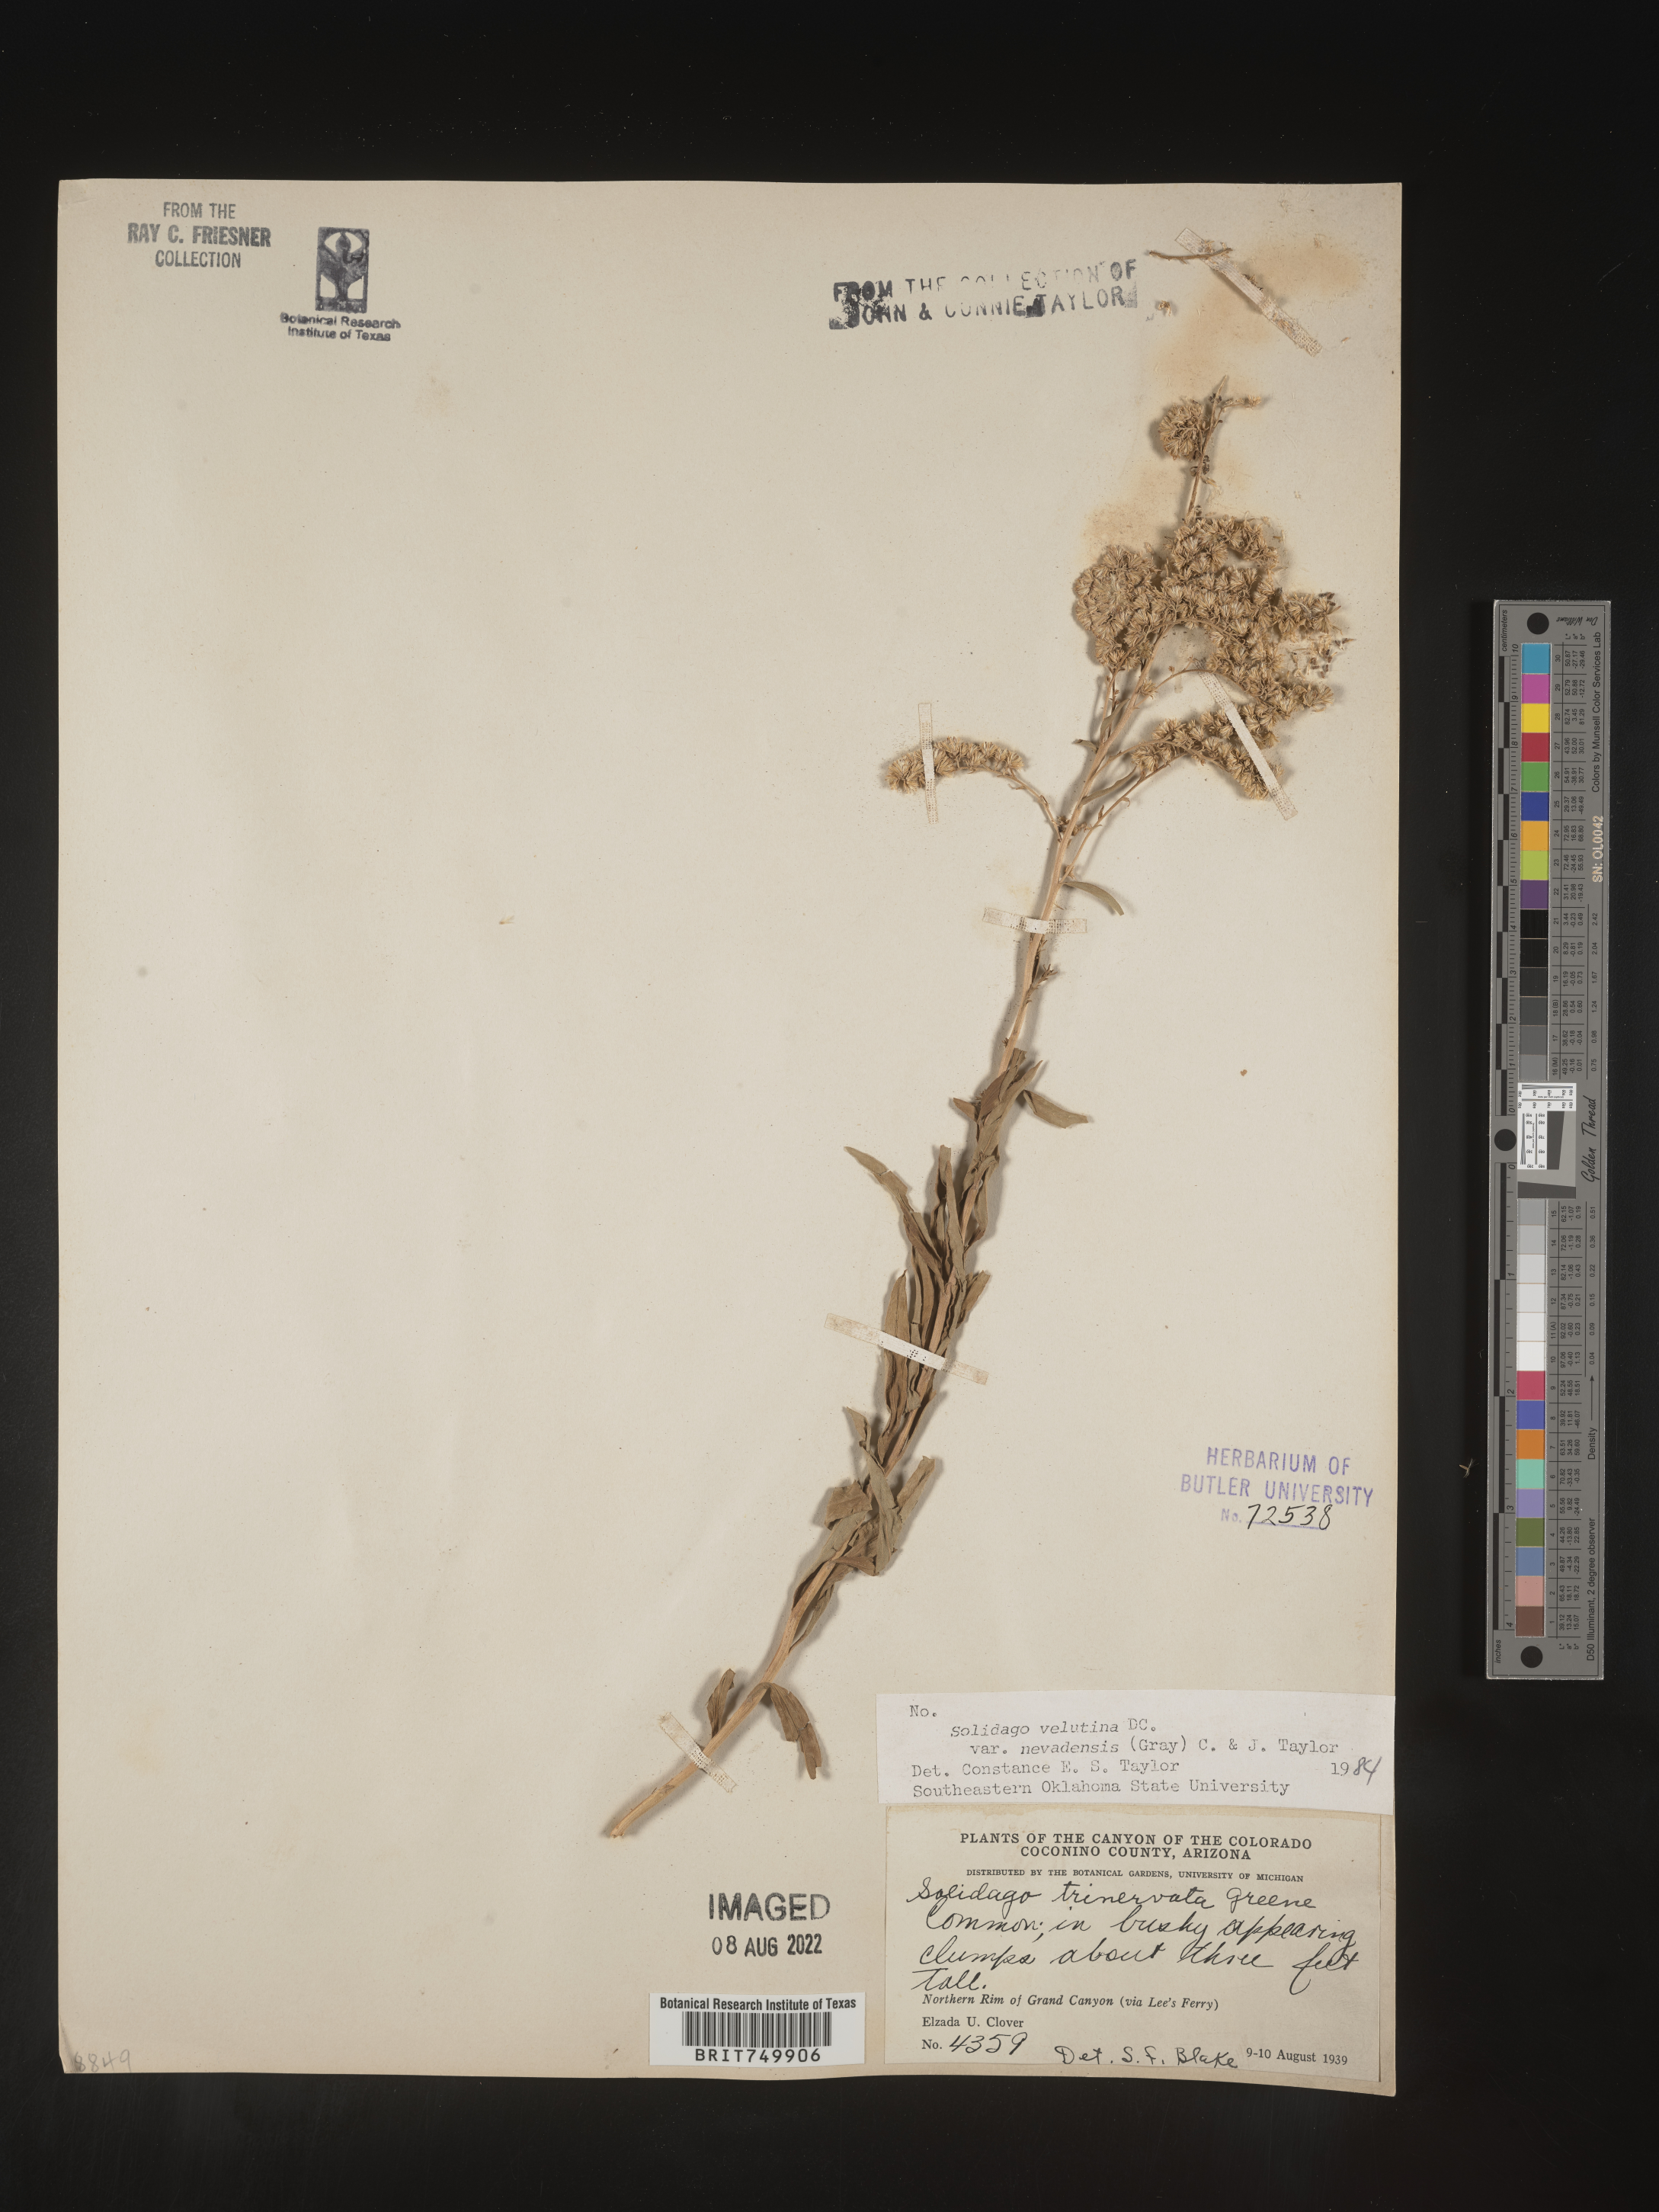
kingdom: Plantae
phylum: Tracheophyta
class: Magnoliopsida
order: Asterales
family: Asteraceae
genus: Solidago
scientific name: Solidago velutina
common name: Three-nerve goldenrod
